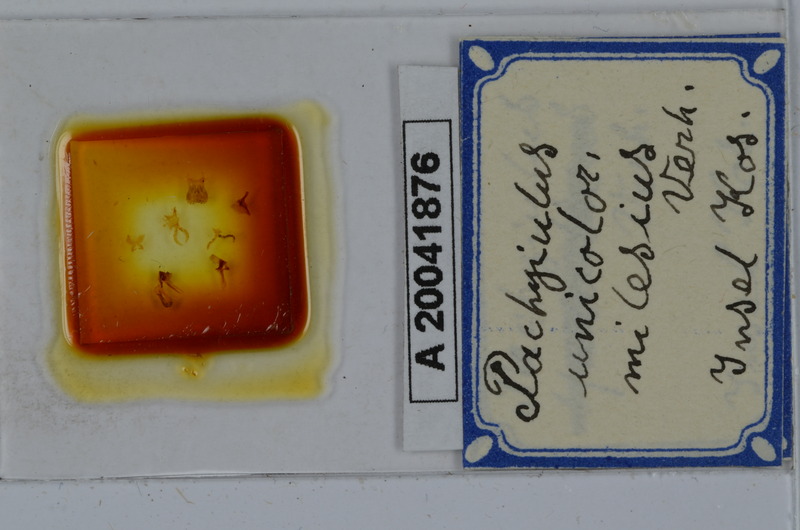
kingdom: Animalia
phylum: Arthropoda
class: Diplopoda
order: Julida
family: Julidae
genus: Pachyiulus
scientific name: Pachyiulus unicolor
